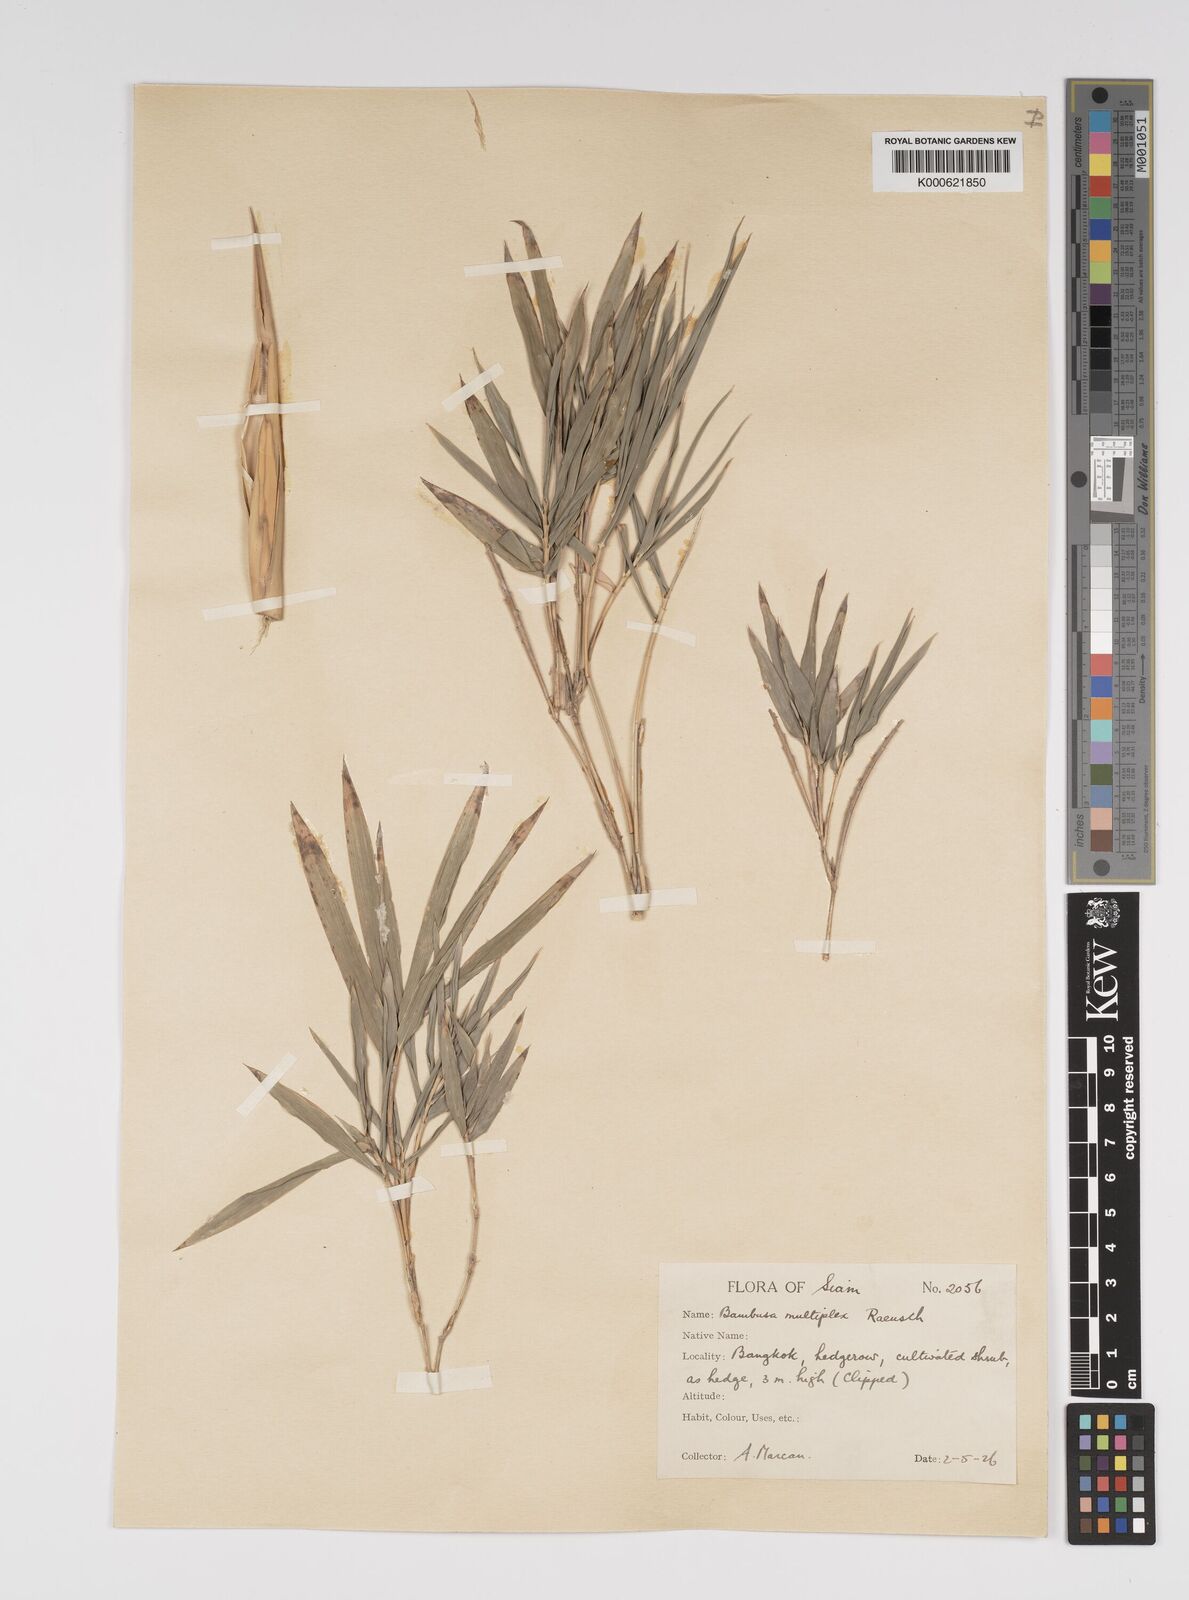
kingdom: Plantae
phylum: Tracheophyta
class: Liliopsida
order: Poales
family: Poaceae
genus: Bambusa
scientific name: Bambusa multiplex
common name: Hedge bamboo
